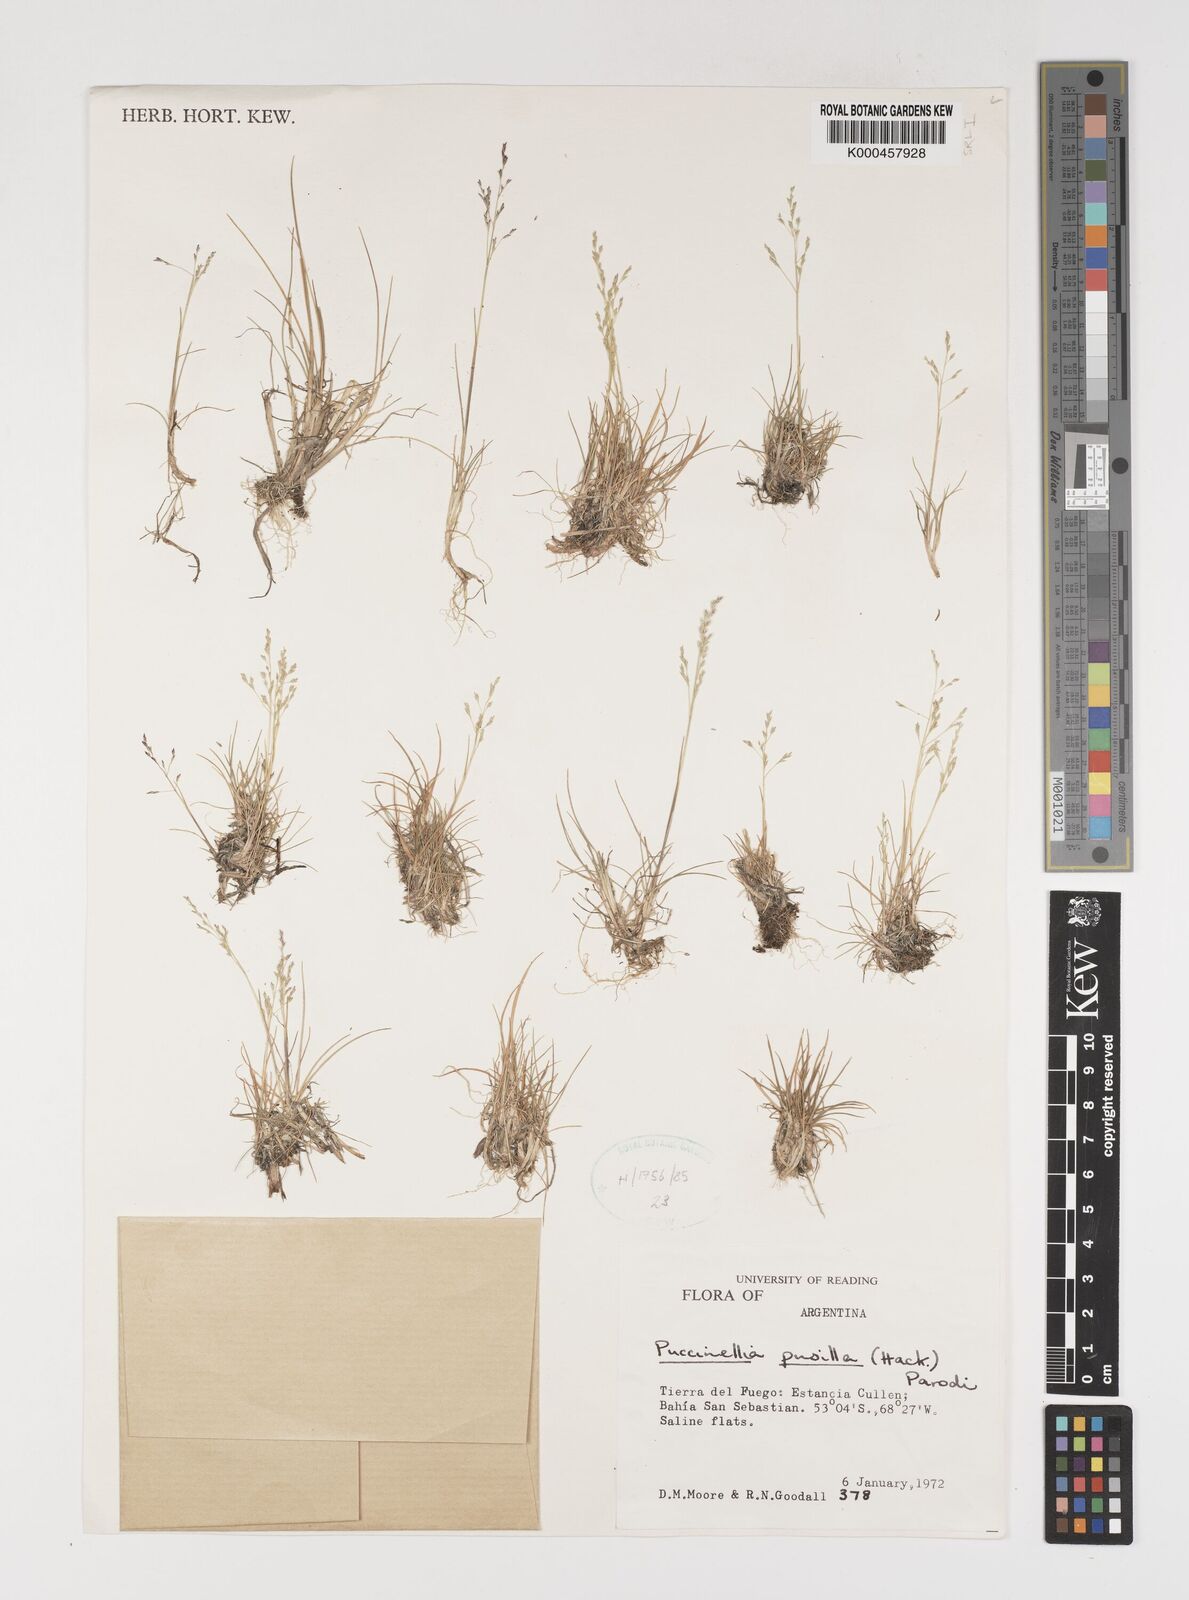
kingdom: Plantae
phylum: Tracheophyta
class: Liliopsida
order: Poales
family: Poaceae
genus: Puccinellia
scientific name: Puccinellia pusilla
